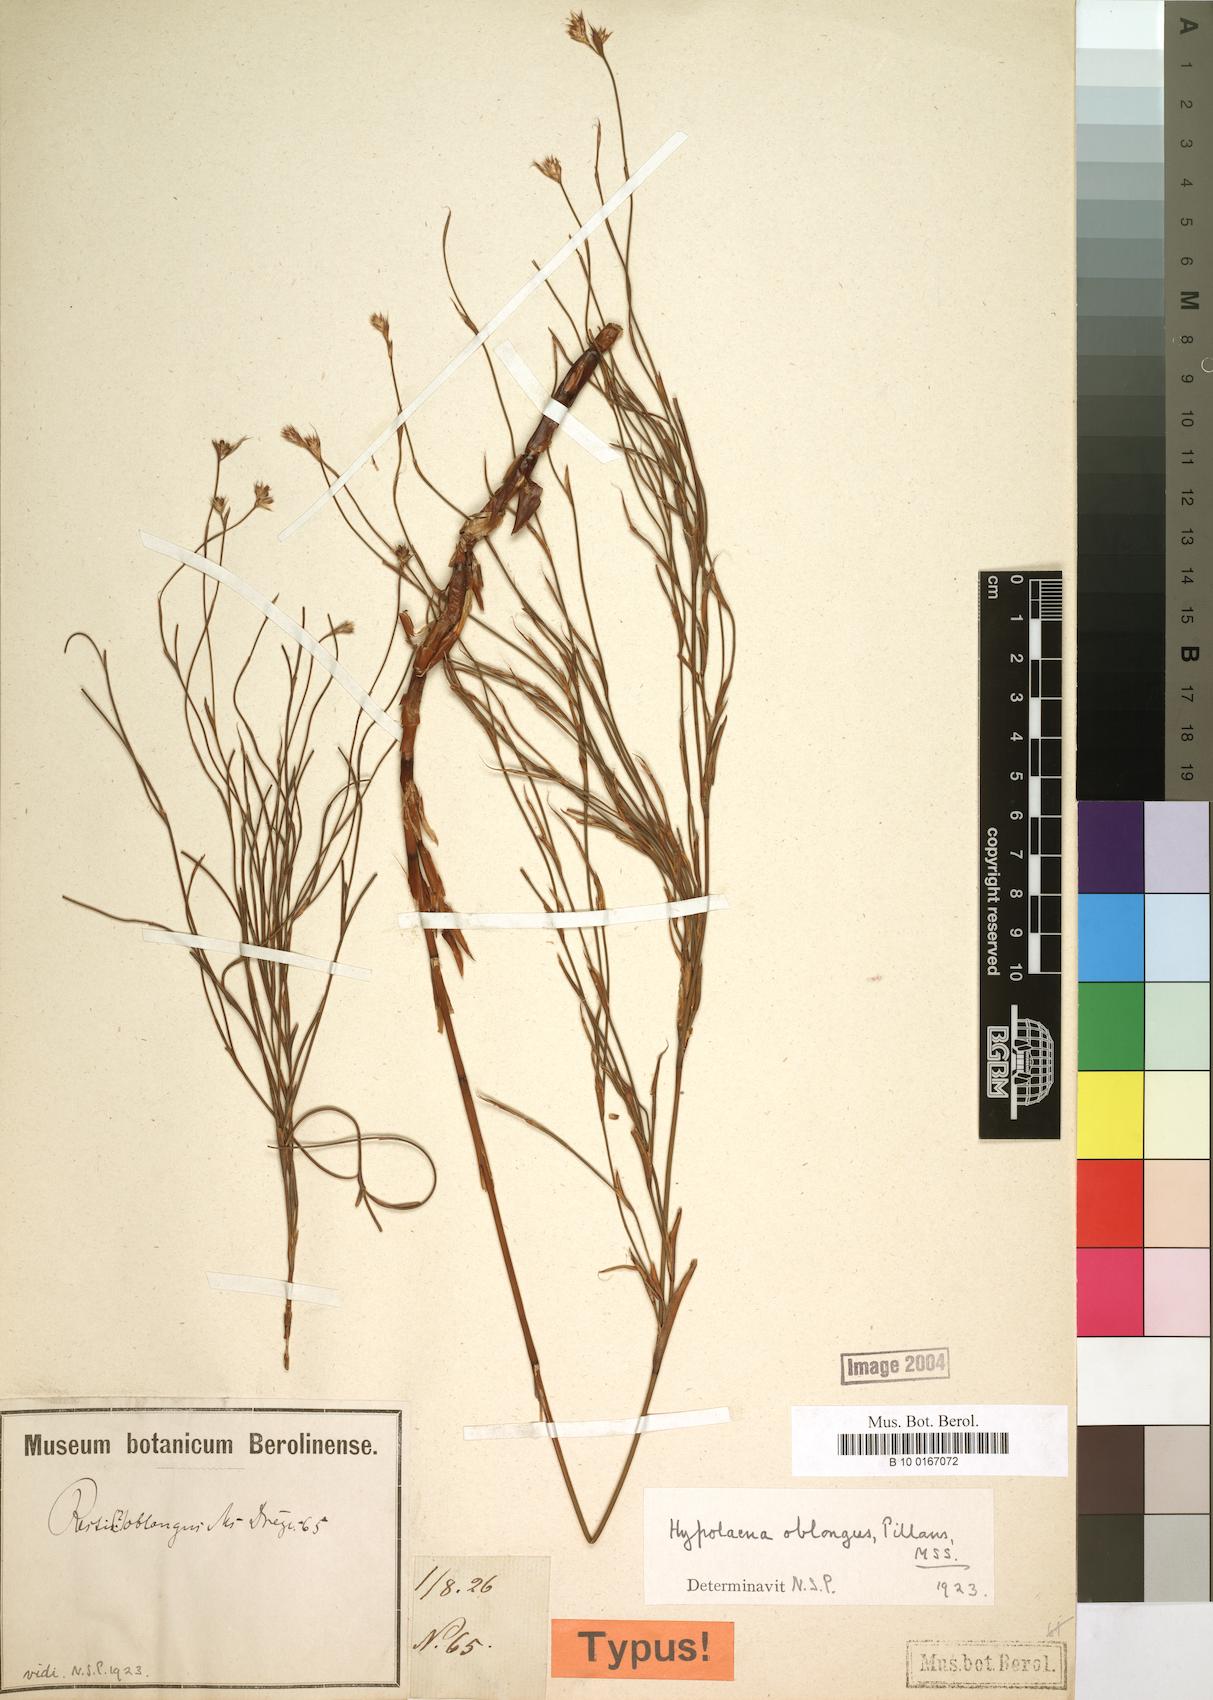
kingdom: Plantae
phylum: Tracheophyta
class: Liliopsida
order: Poales
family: Restionaceae
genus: Anthochortus
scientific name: Anthochortus crinalis
